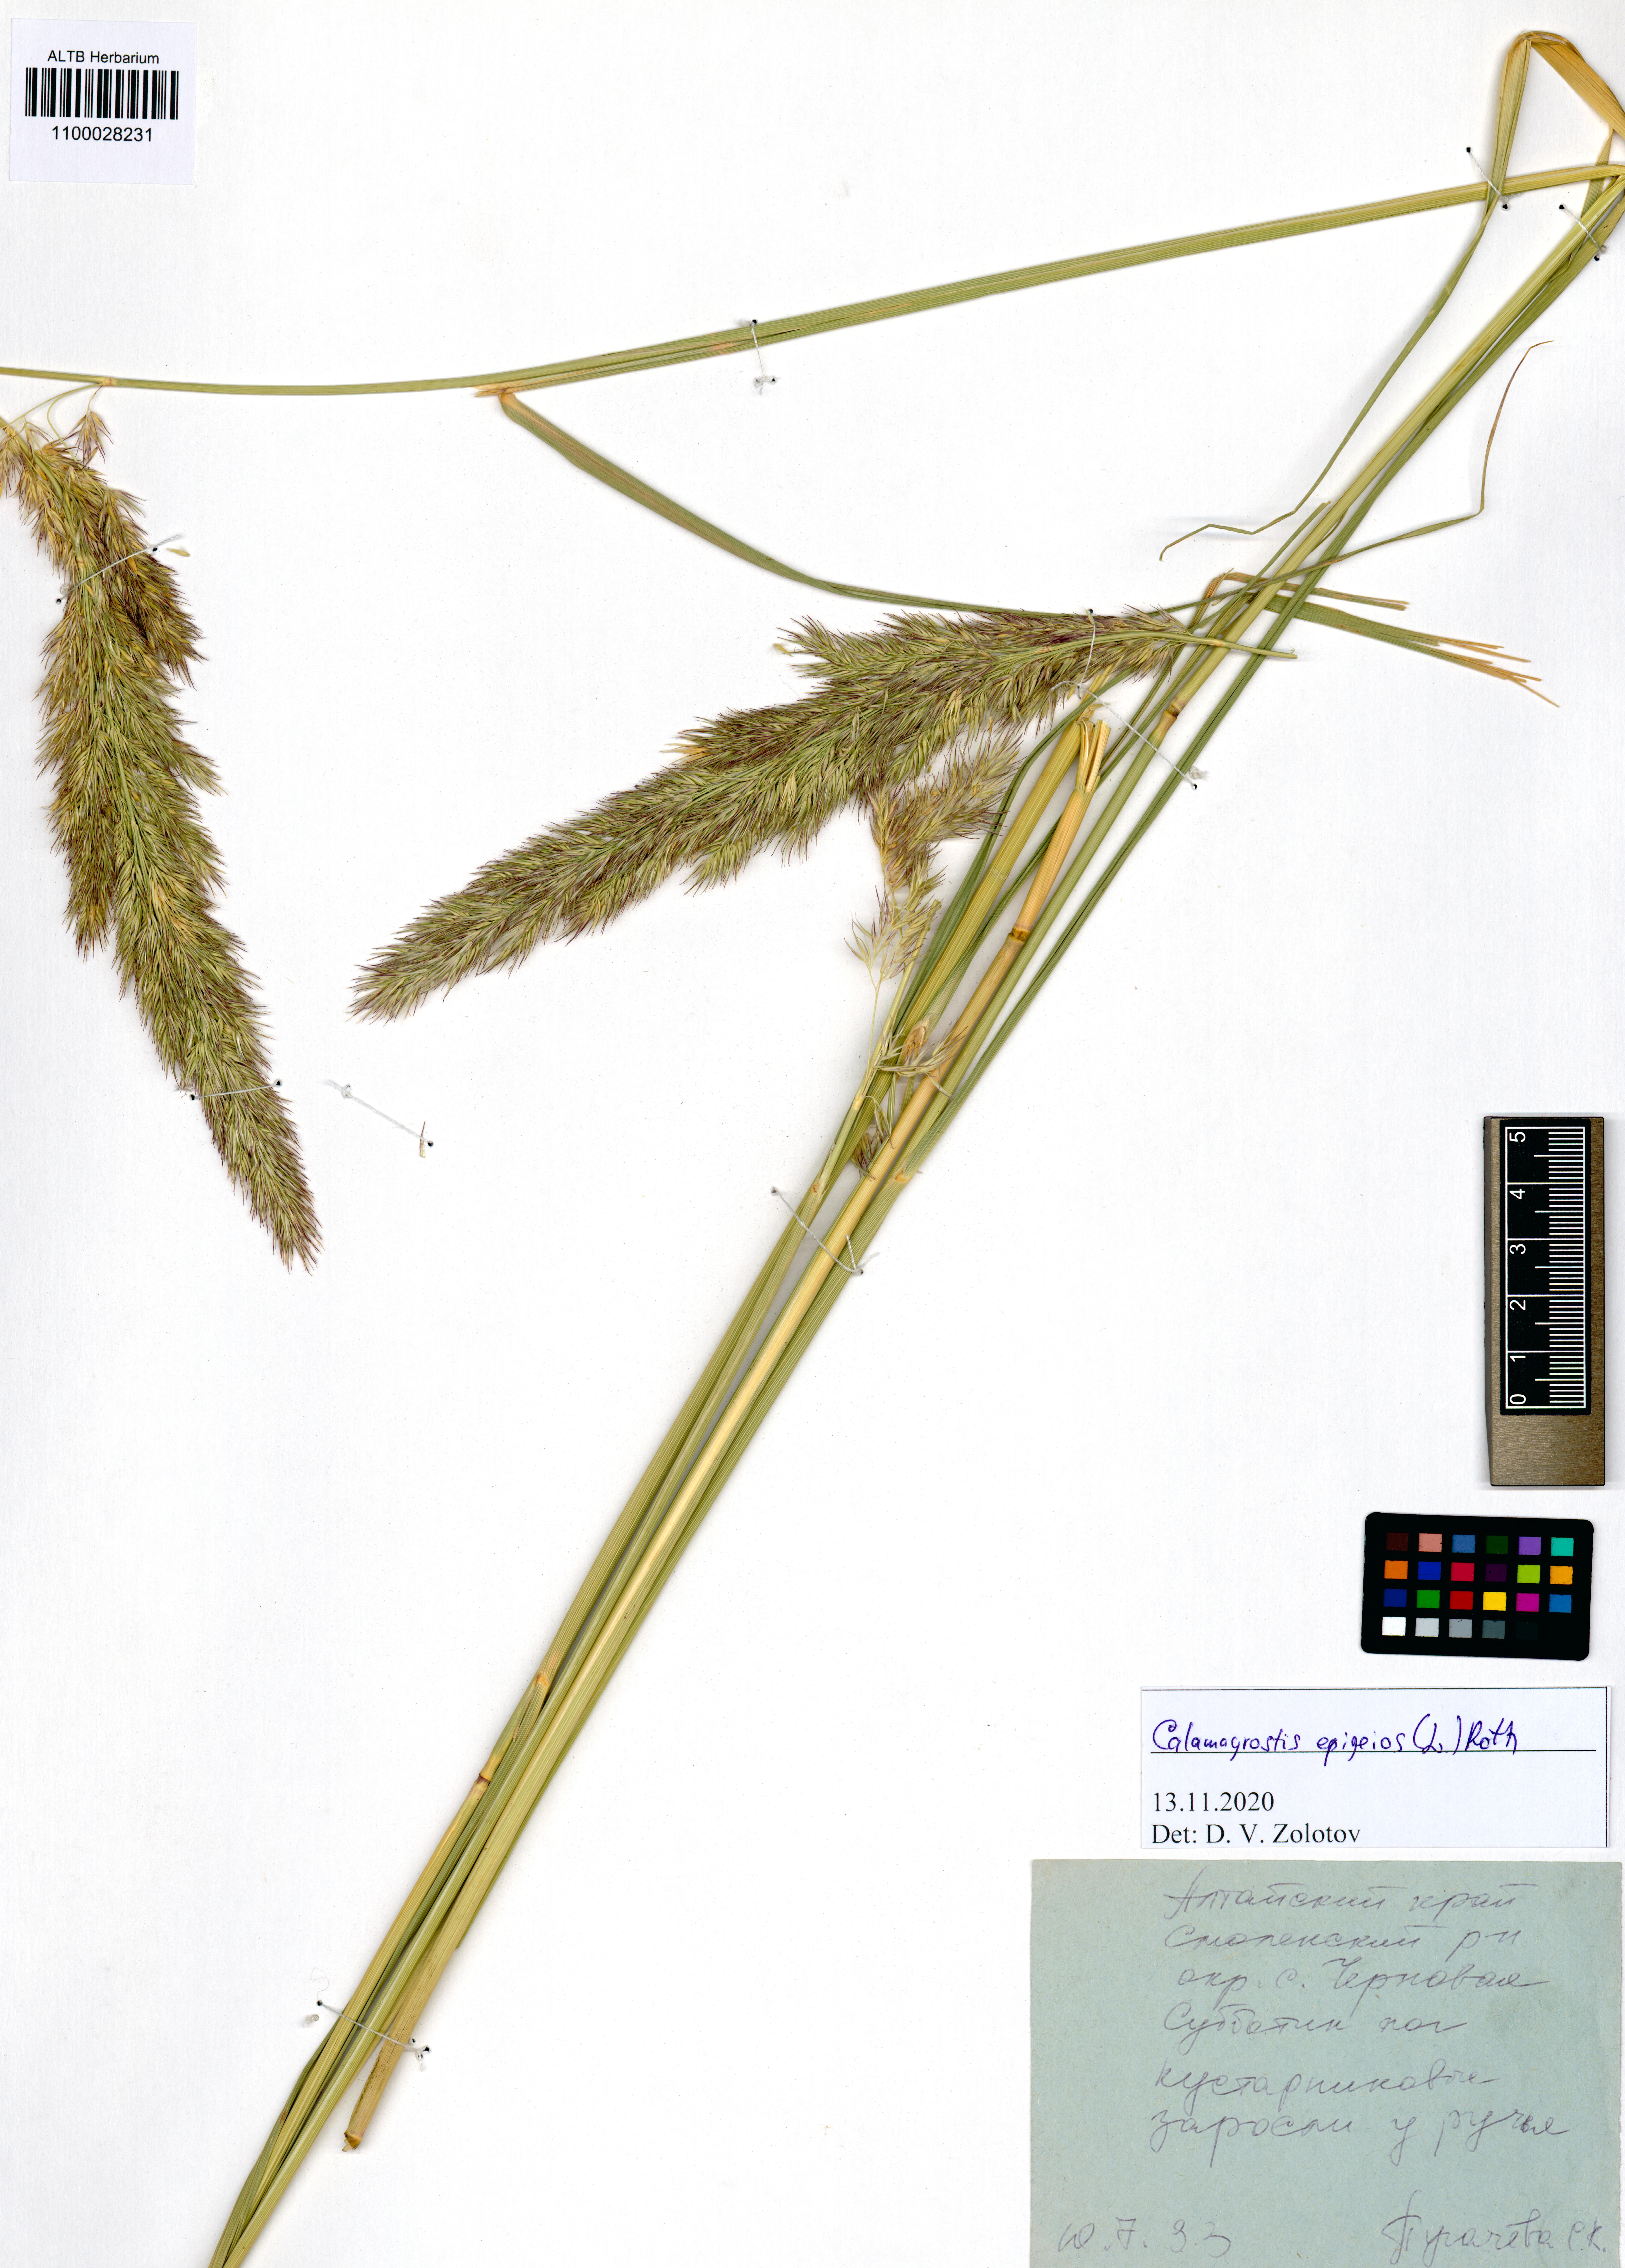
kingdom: Plantae
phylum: Tracheophyta
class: Liliopsida
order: Poales
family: Poaceae
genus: Calamagrostis
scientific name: Calamagrostis epigejos
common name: Wood small-reed
